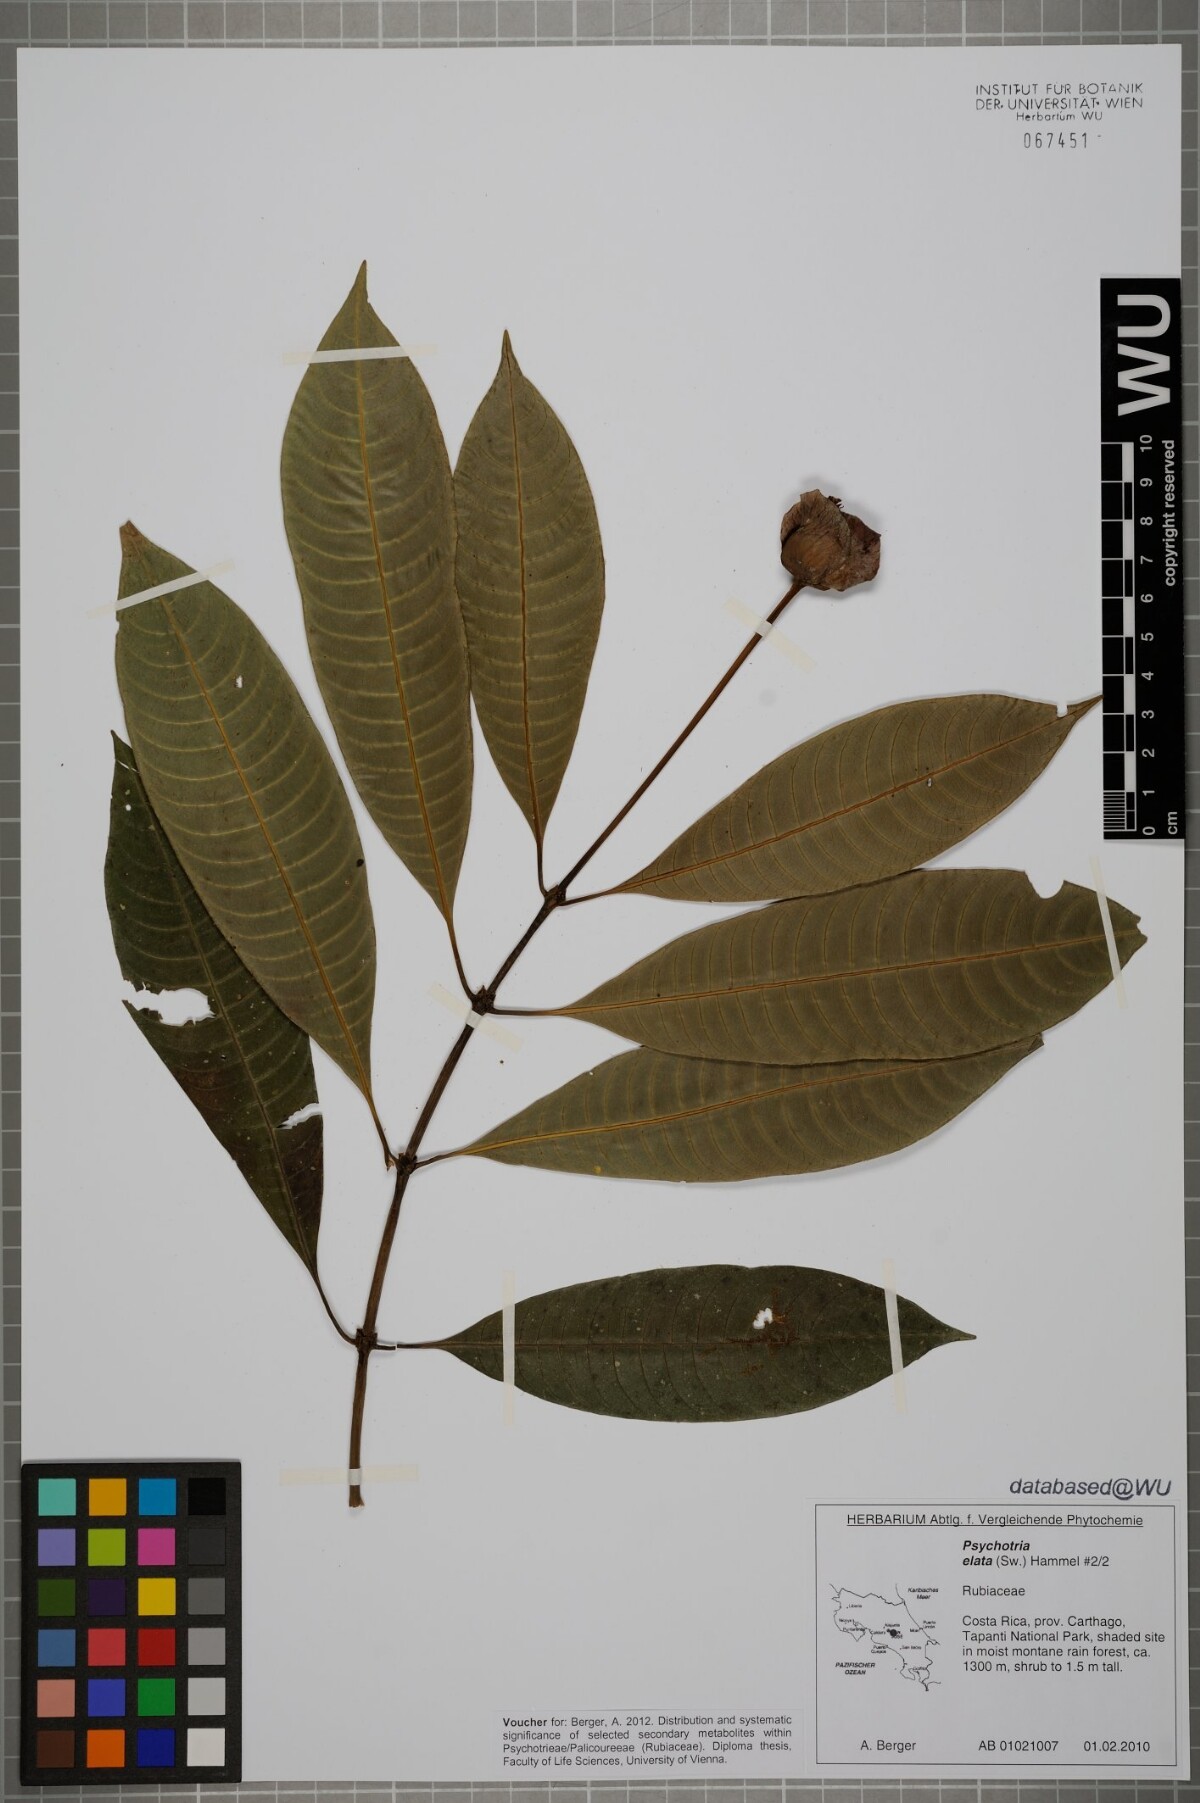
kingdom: Plantae
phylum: Tracheophyta
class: Magnoliopsida
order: Gentianales
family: Rubiaceae
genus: Palicourea
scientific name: Palicourea elata
